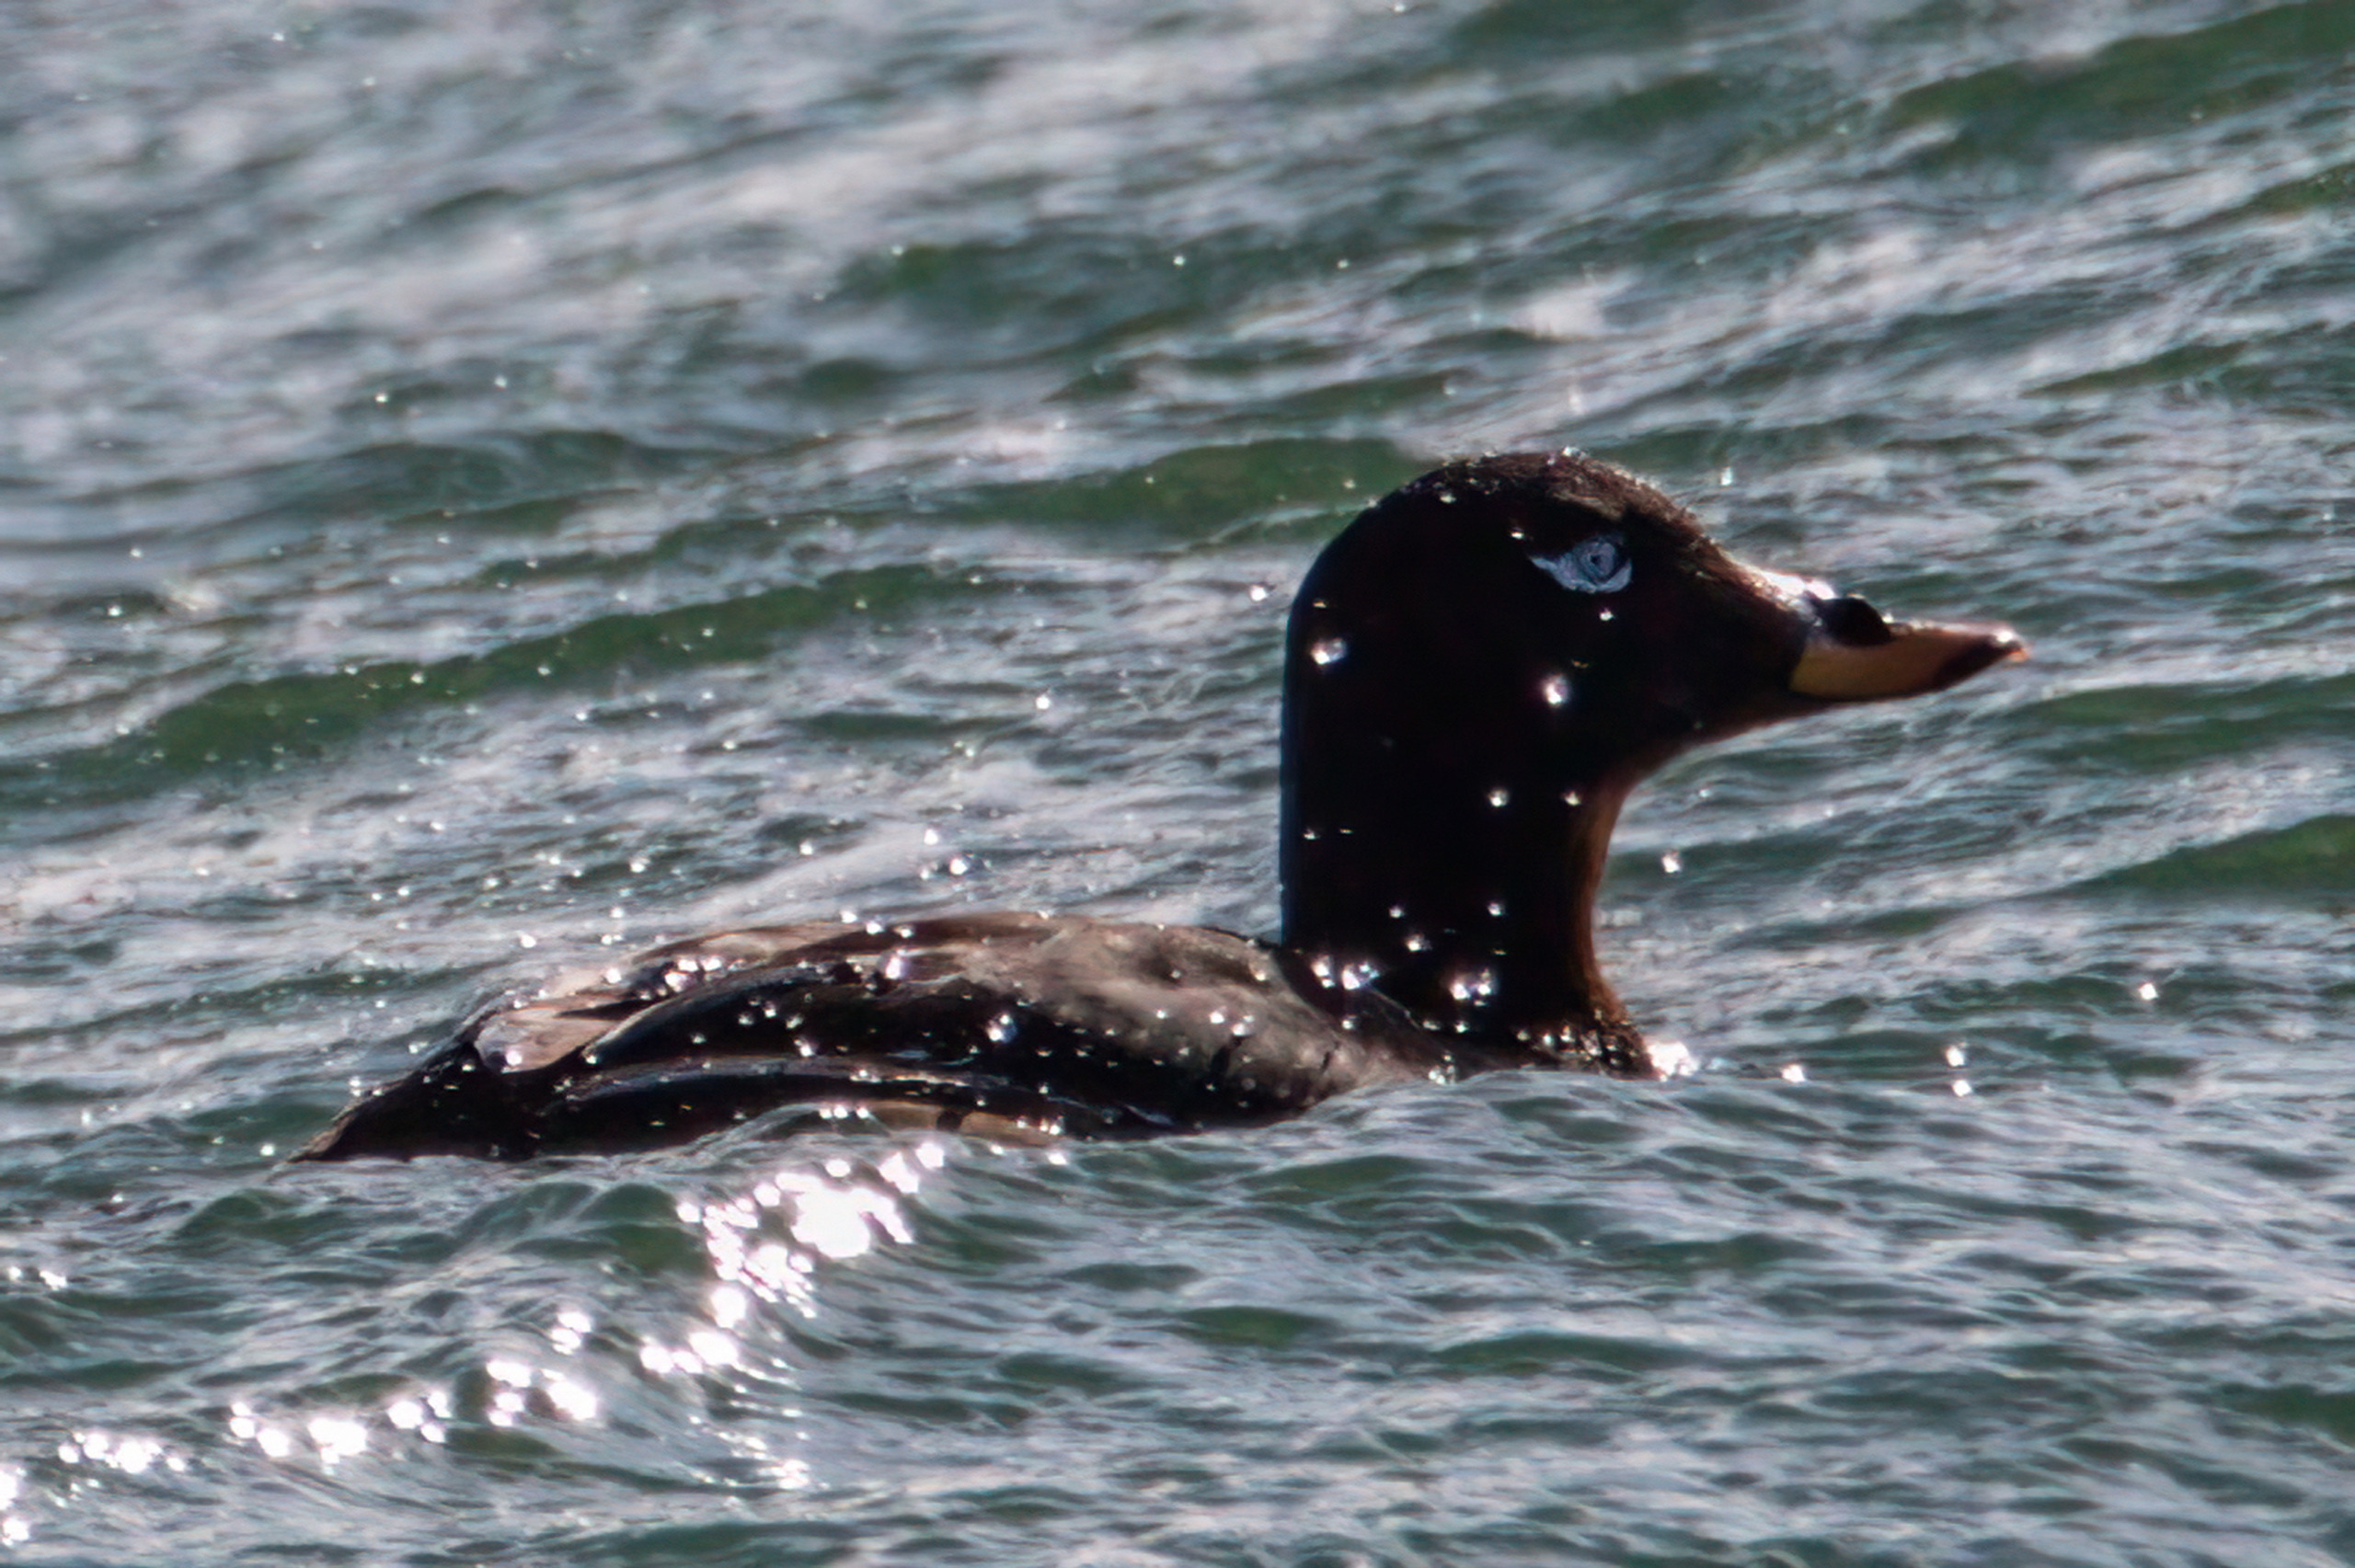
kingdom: Animalia
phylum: Chordata
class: Aves
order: Anseriformes
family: Anatidae
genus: Melanitta
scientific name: Melanitta fusca
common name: Fløjlsand
